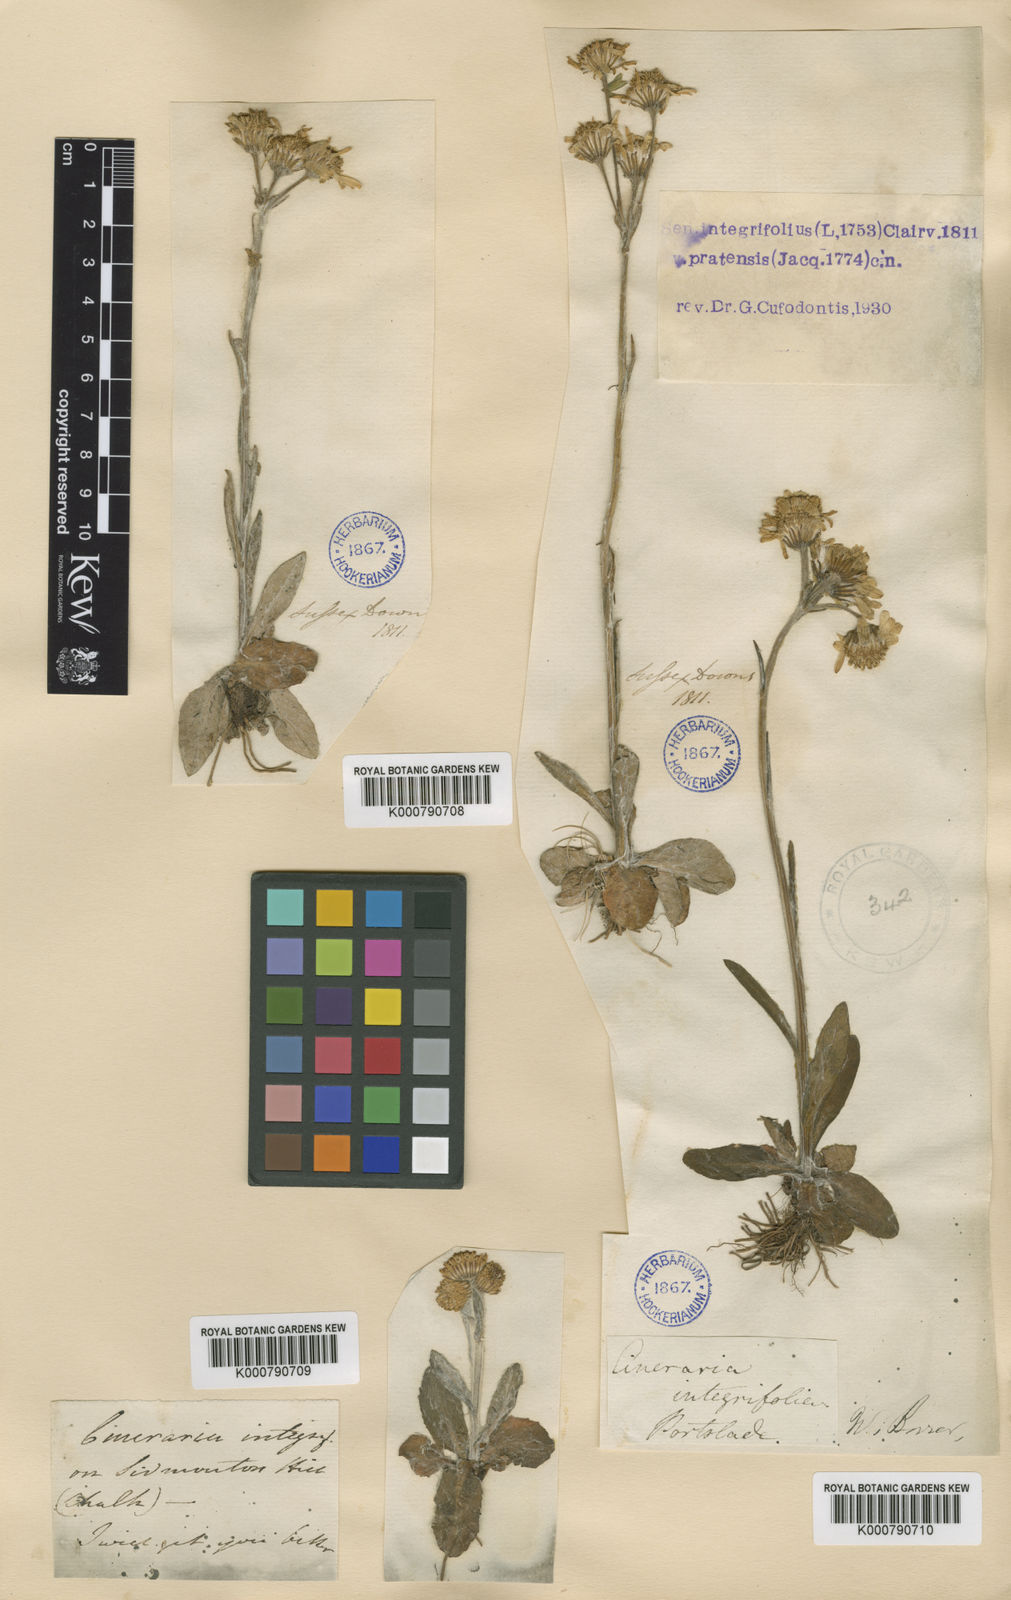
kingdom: Plantae
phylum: Tracheophyta
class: Magnoliopsida
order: Asterales
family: Asteraceae
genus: Tephroseris
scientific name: Tephroseris integrifolia
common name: Field fleawort
